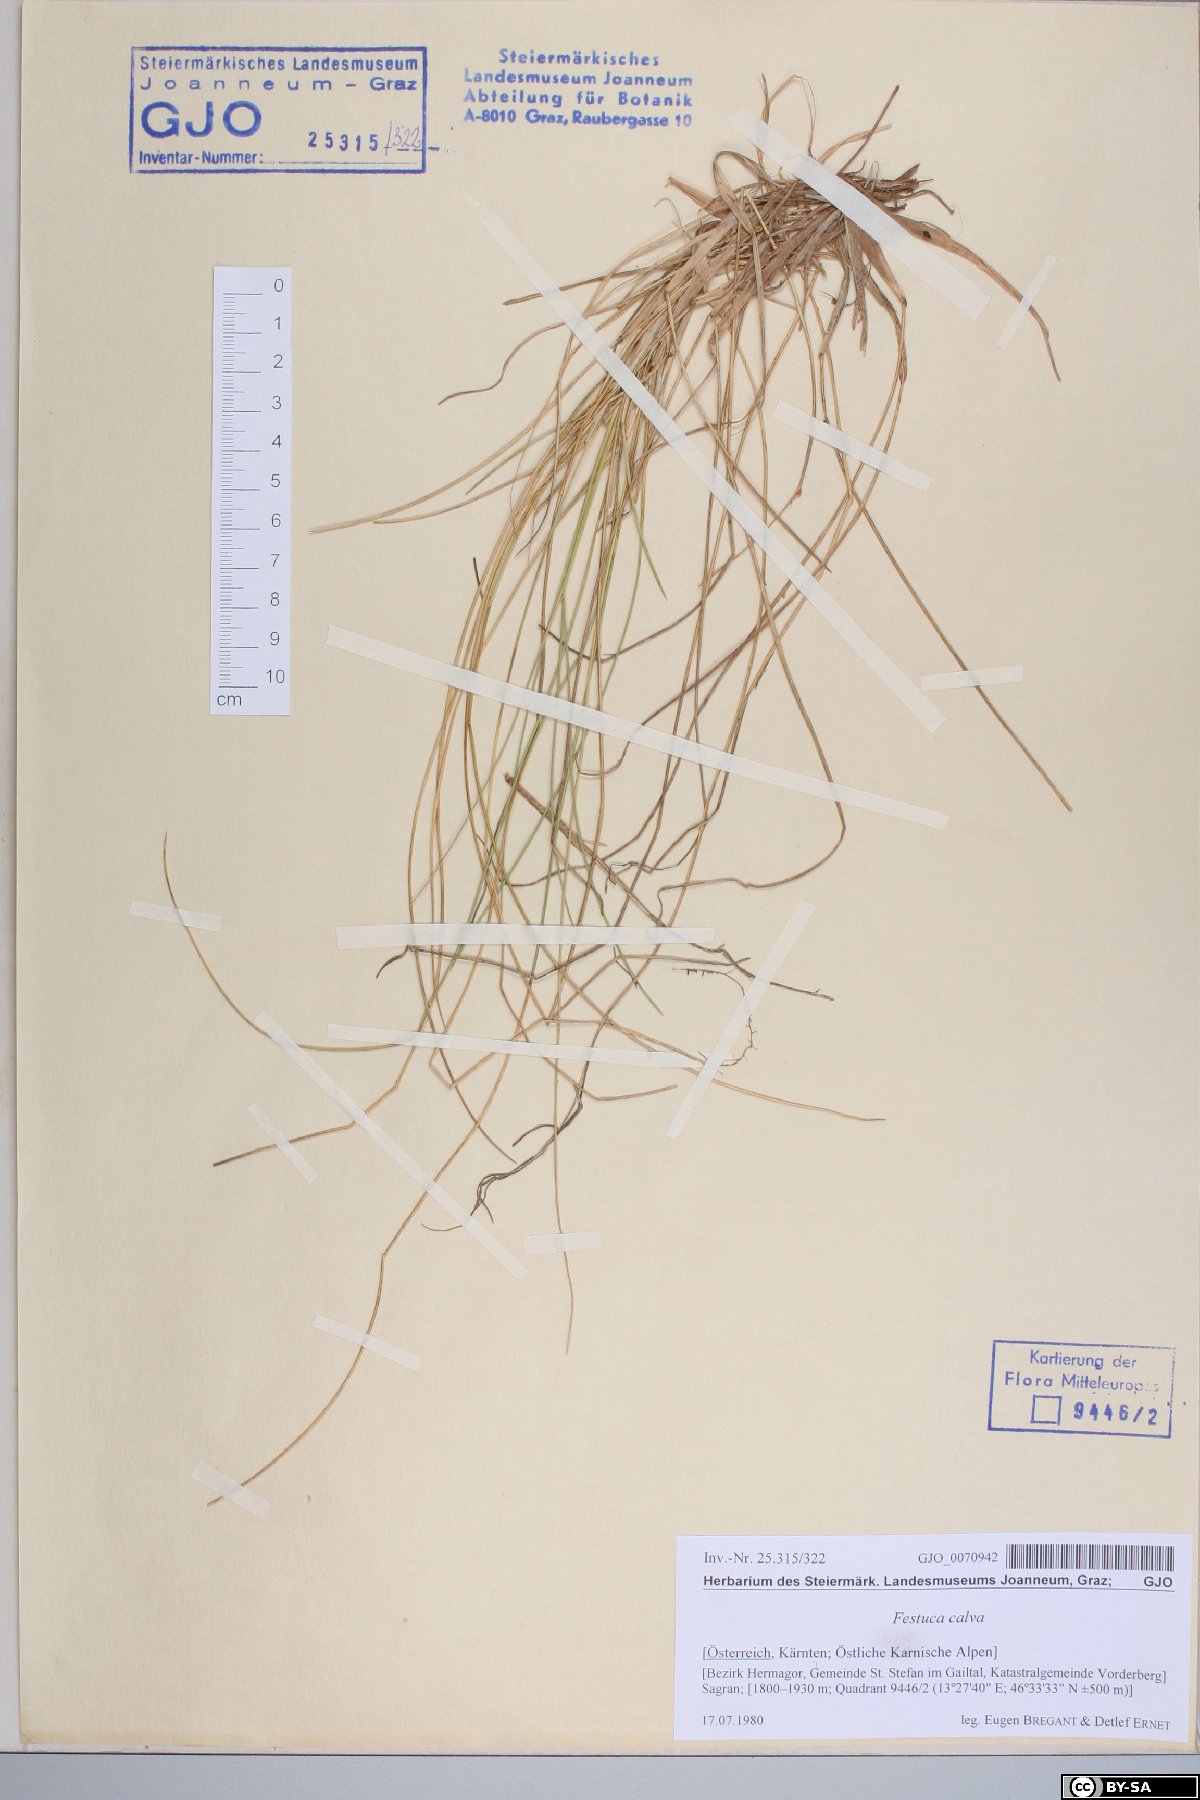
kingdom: Plantae
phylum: Tracheophyta
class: Liliopsida
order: Poales
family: Poaceae
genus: Festuca
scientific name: Festuca calva
